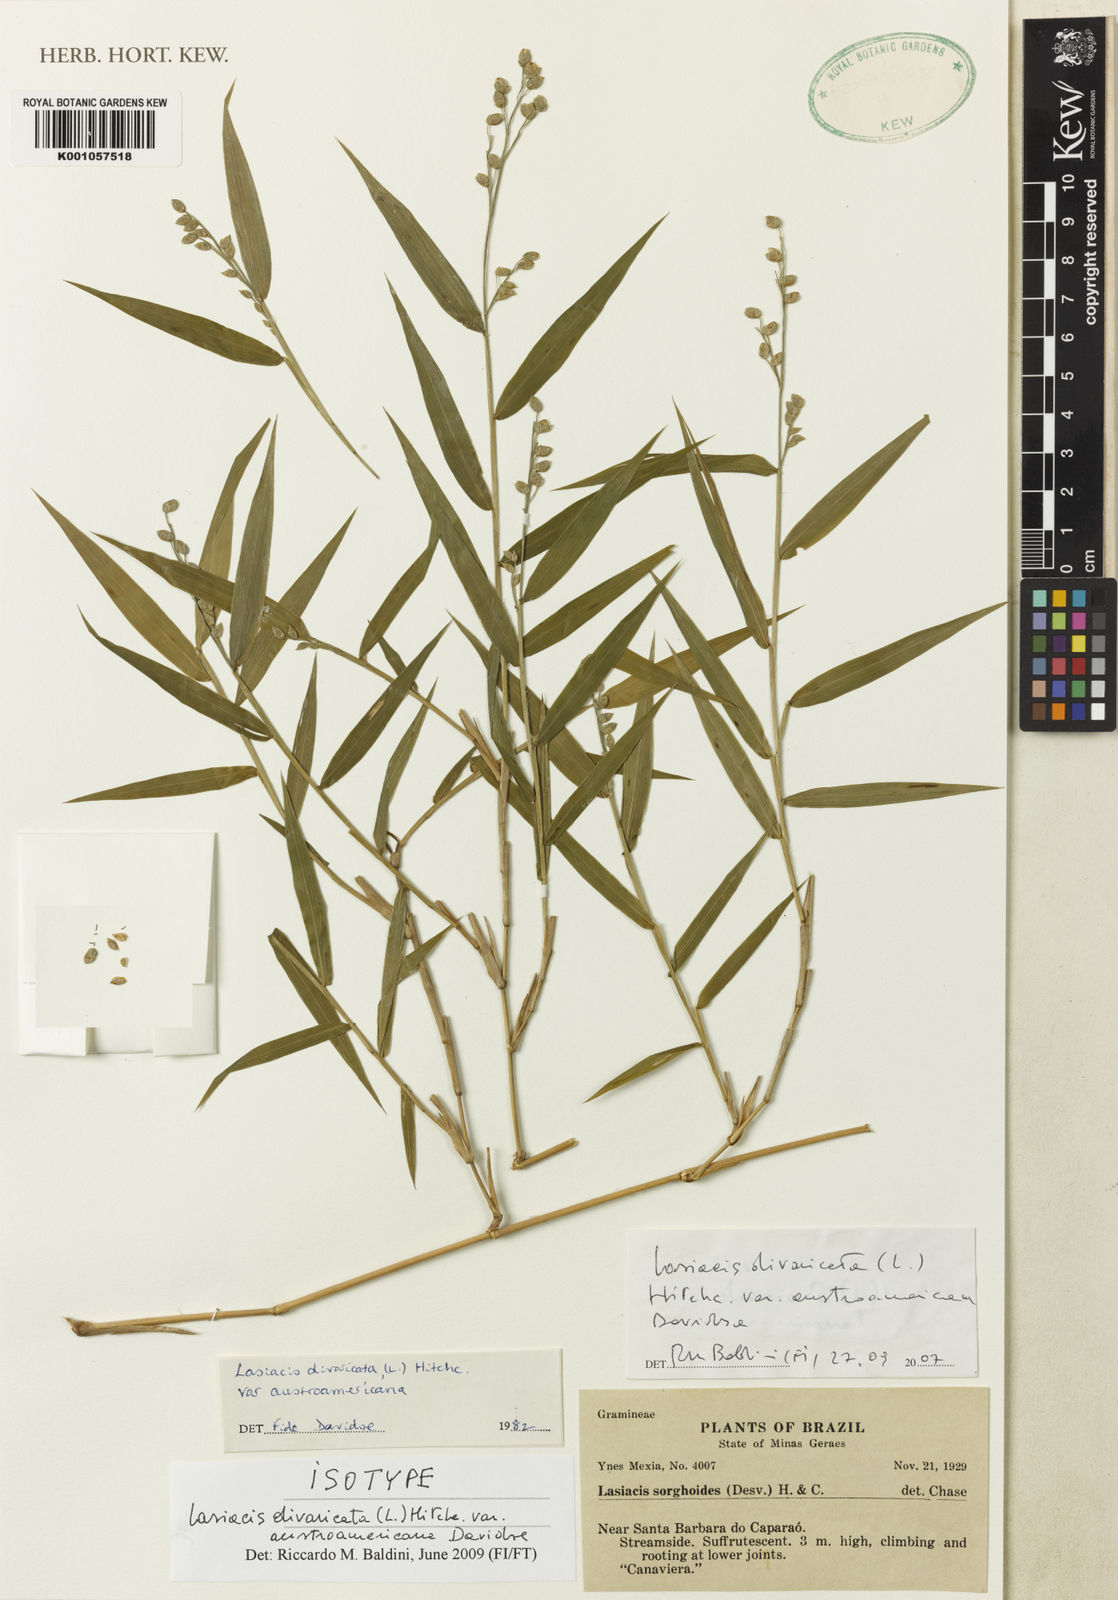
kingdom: Plantae
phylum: Tracheophyta
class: Liliopsida
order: Poales
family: Poaceae
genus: Lasiacis
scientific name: Lasiacis divaricata
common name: Smallcane
